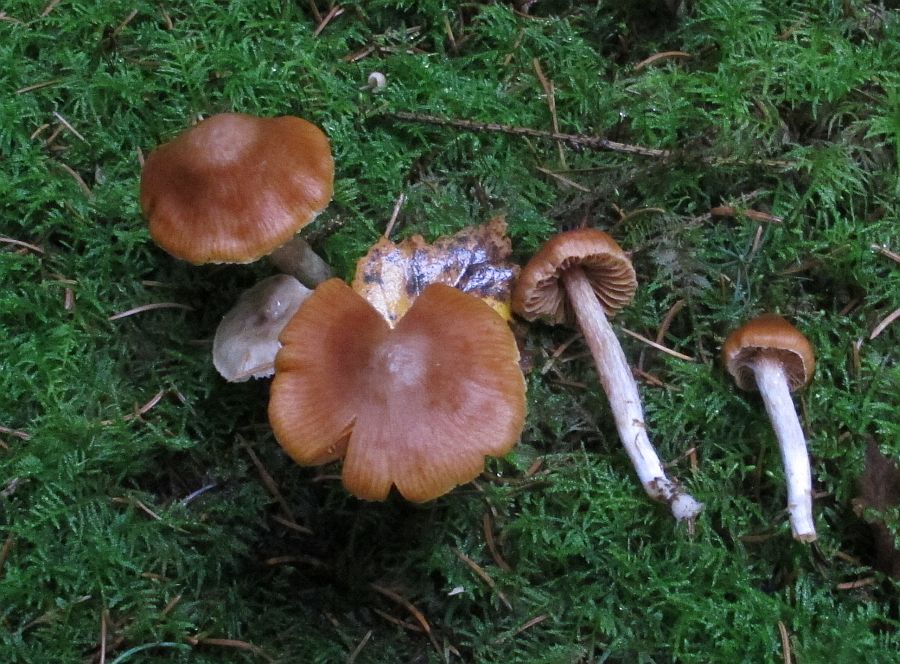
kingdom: Fungi
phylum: Basidiomycota
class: Agaricomycetes
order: Agaricales
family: Cortinariaceae
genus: Cortinarius
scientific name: Cortinarius
